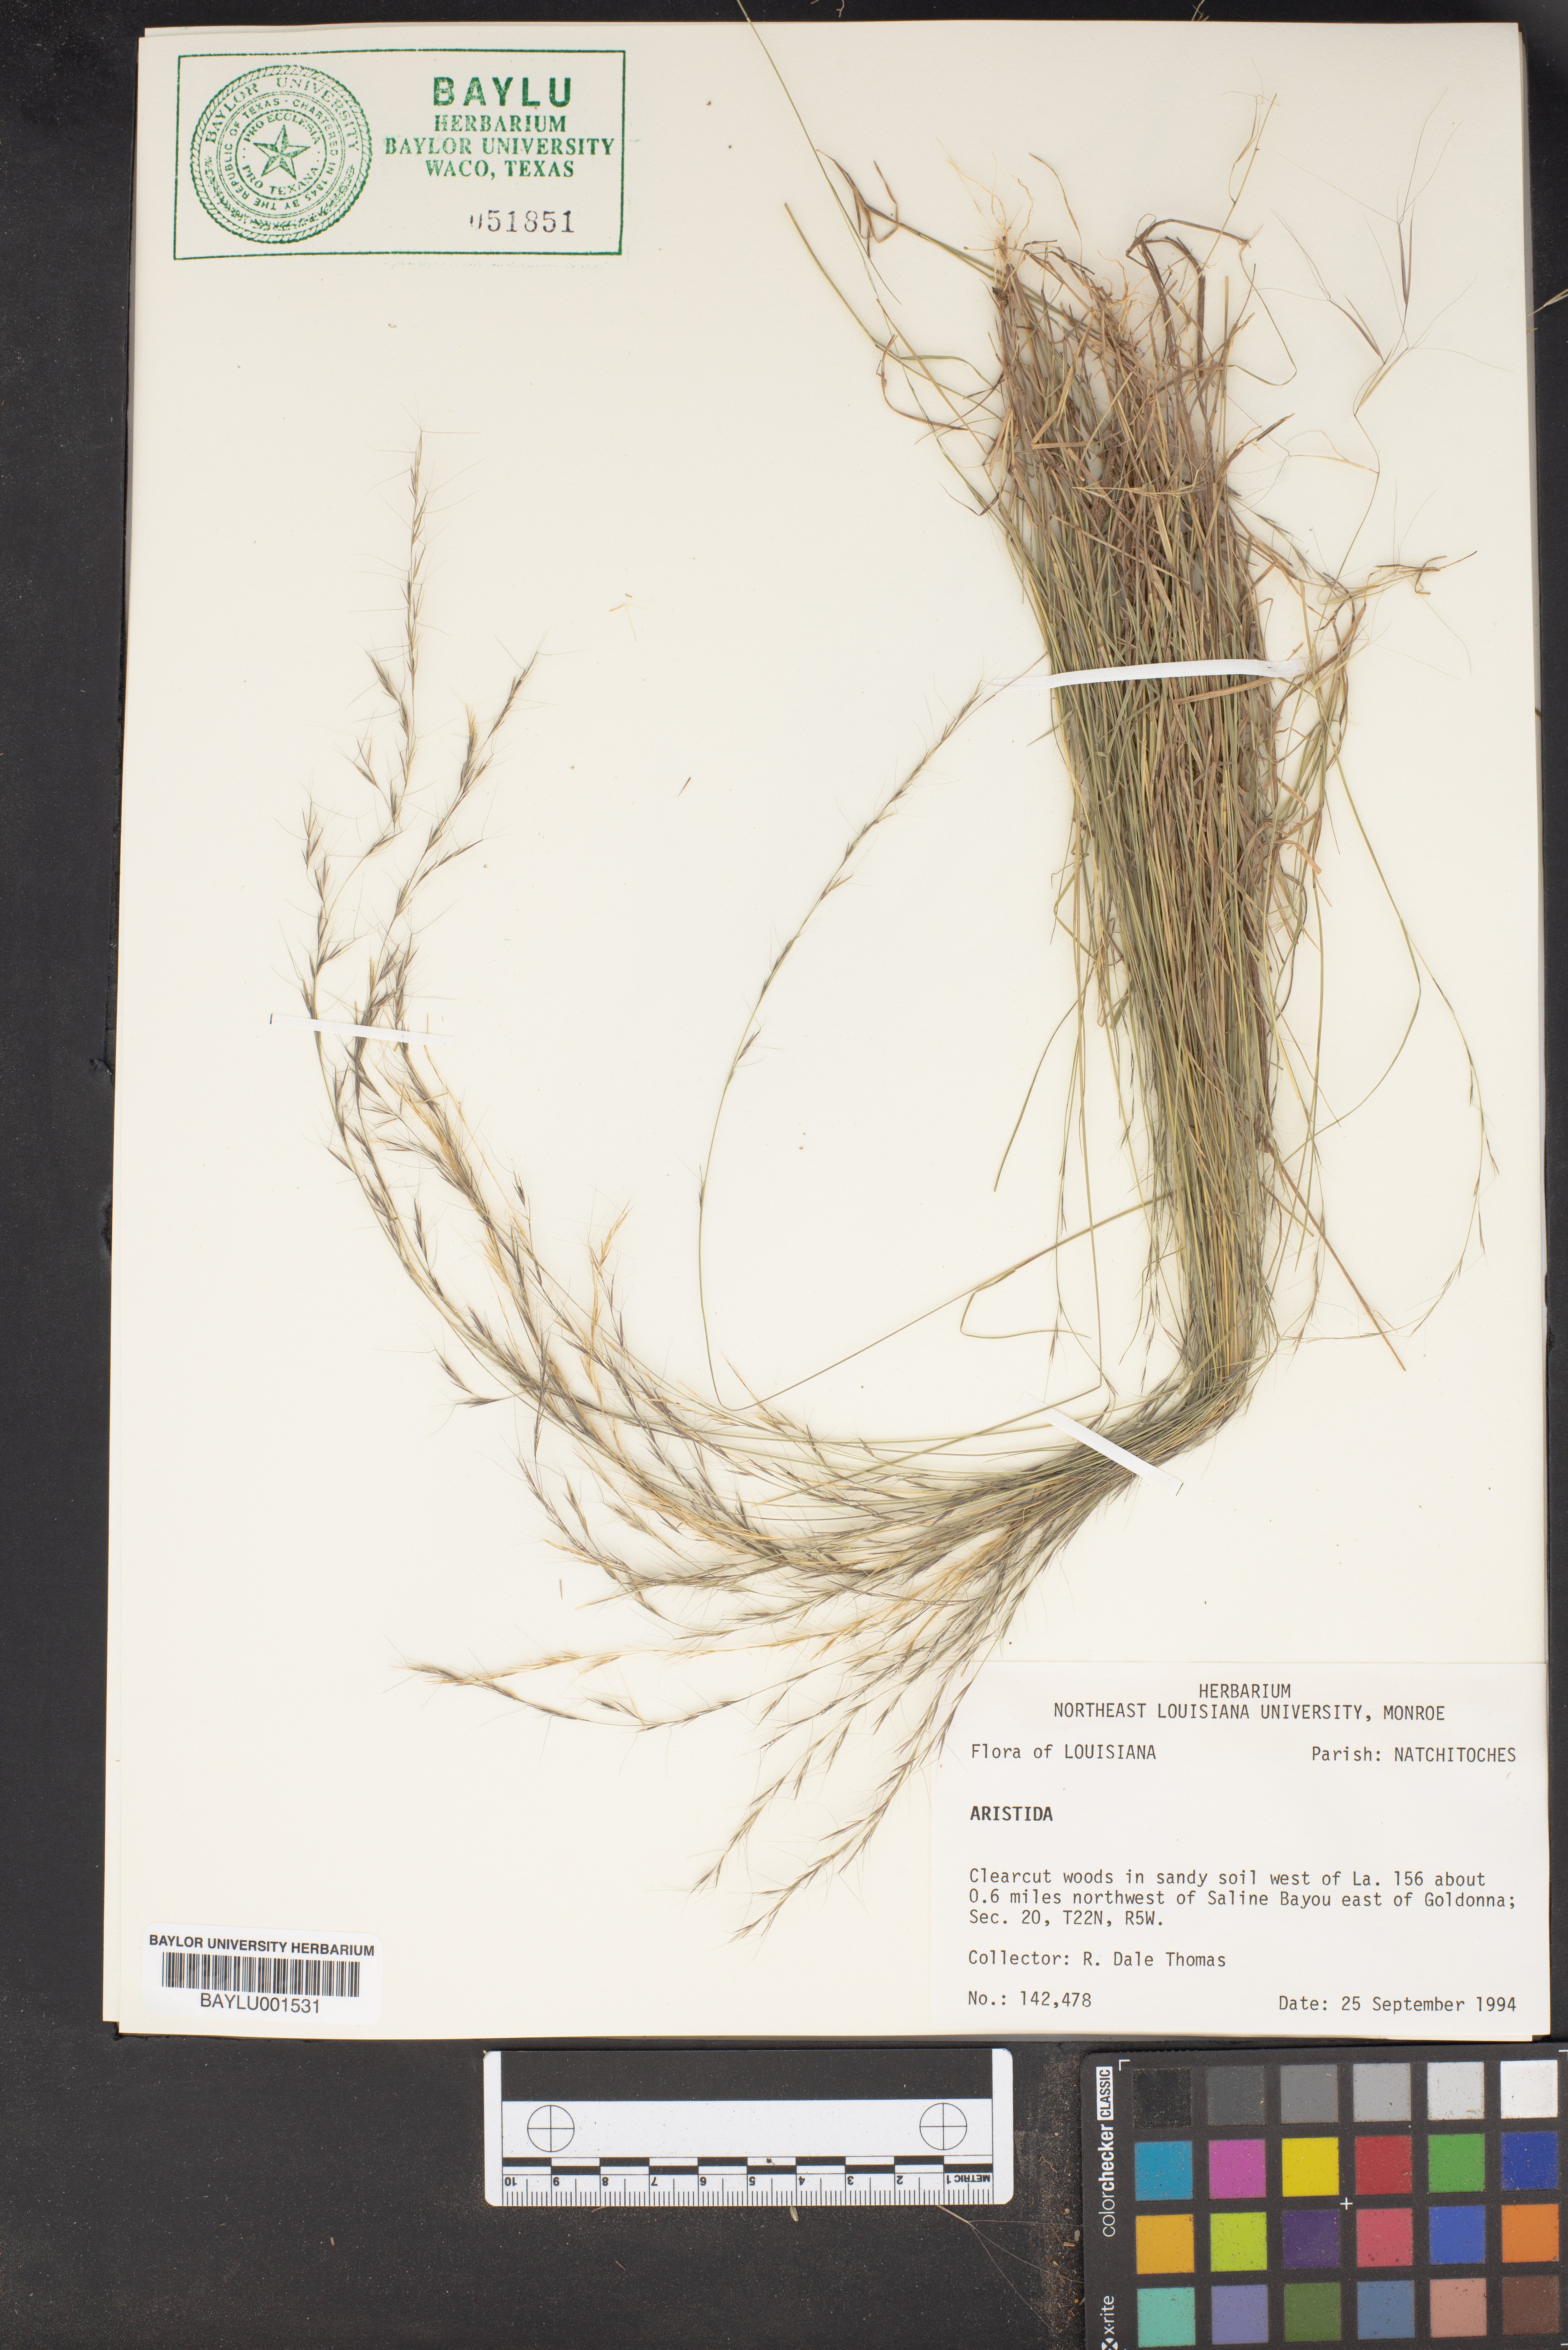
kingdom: Plantae
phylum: Tracheophyta
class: Liliopsida
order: Poales
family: Poaceae
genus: Aristida
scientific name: Aristida
